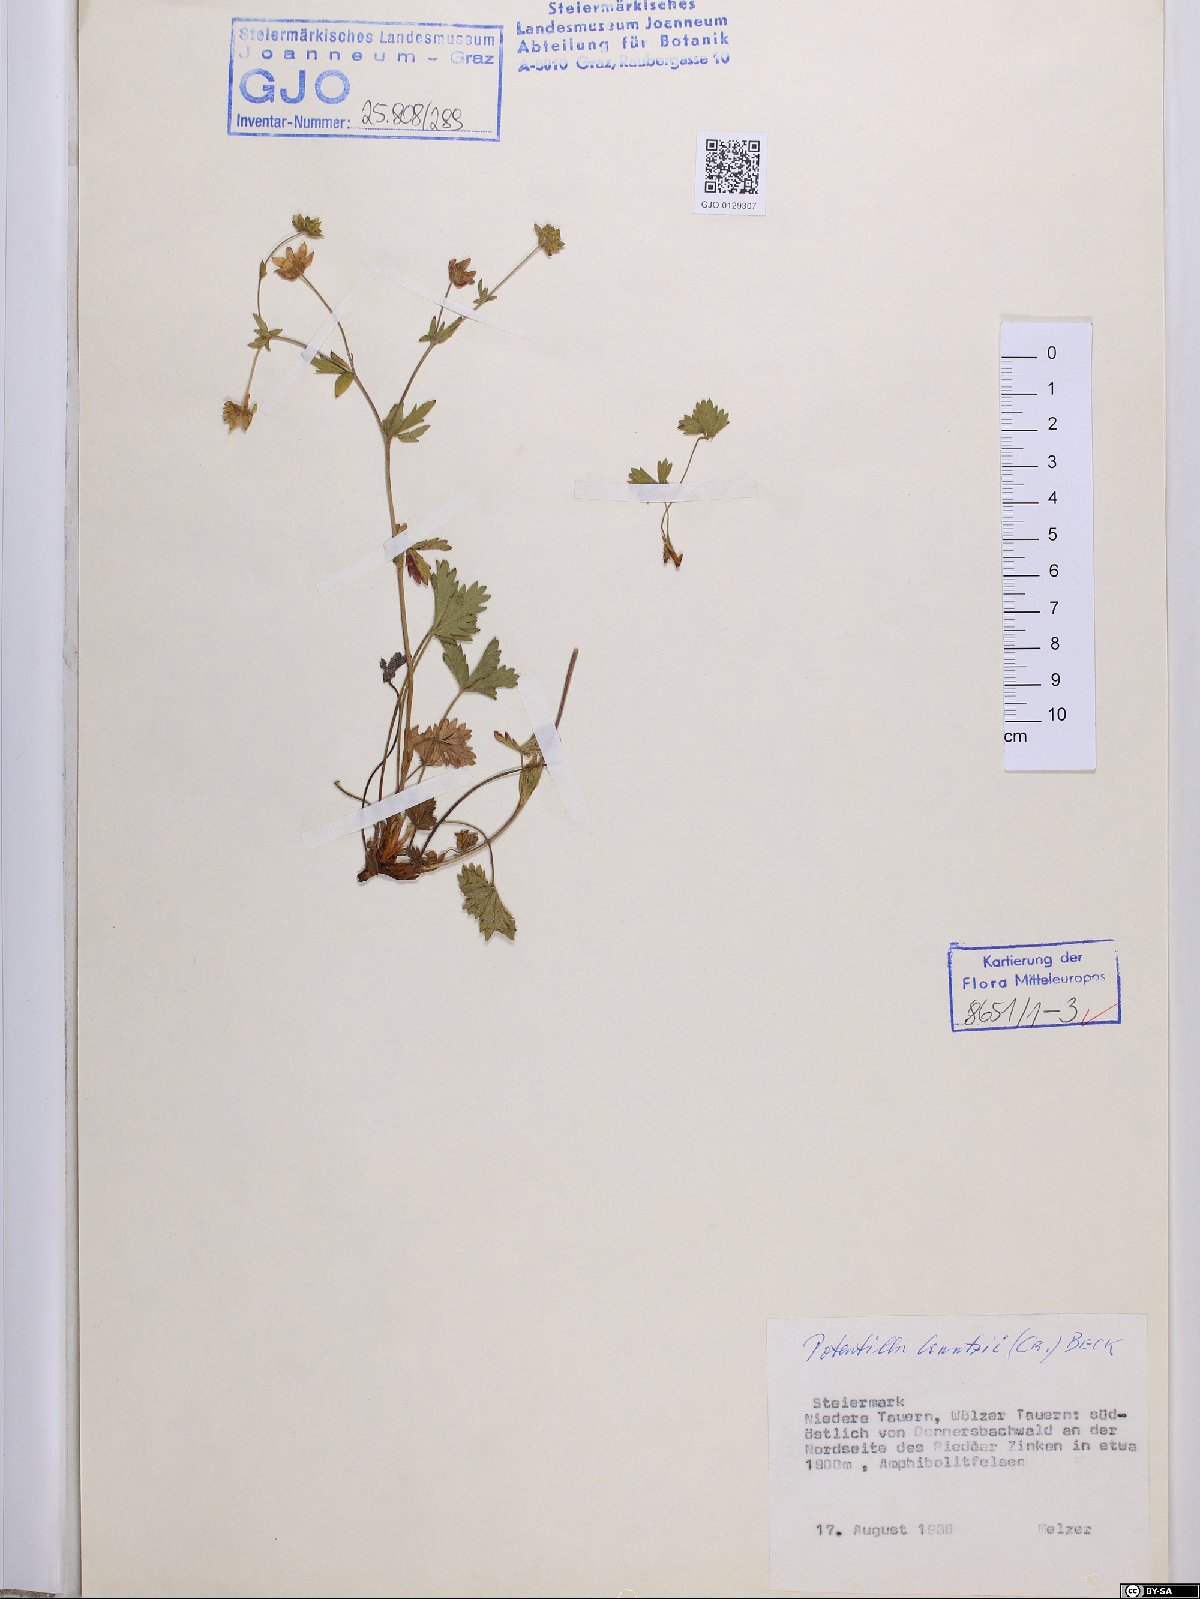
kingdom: Plantae
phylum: Tracheophyta
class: Magnoliopsida
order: Rosales
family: Rosaceae
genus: Potentilla
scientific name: Potentilla crantzii
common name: Alpine cinquefoil
